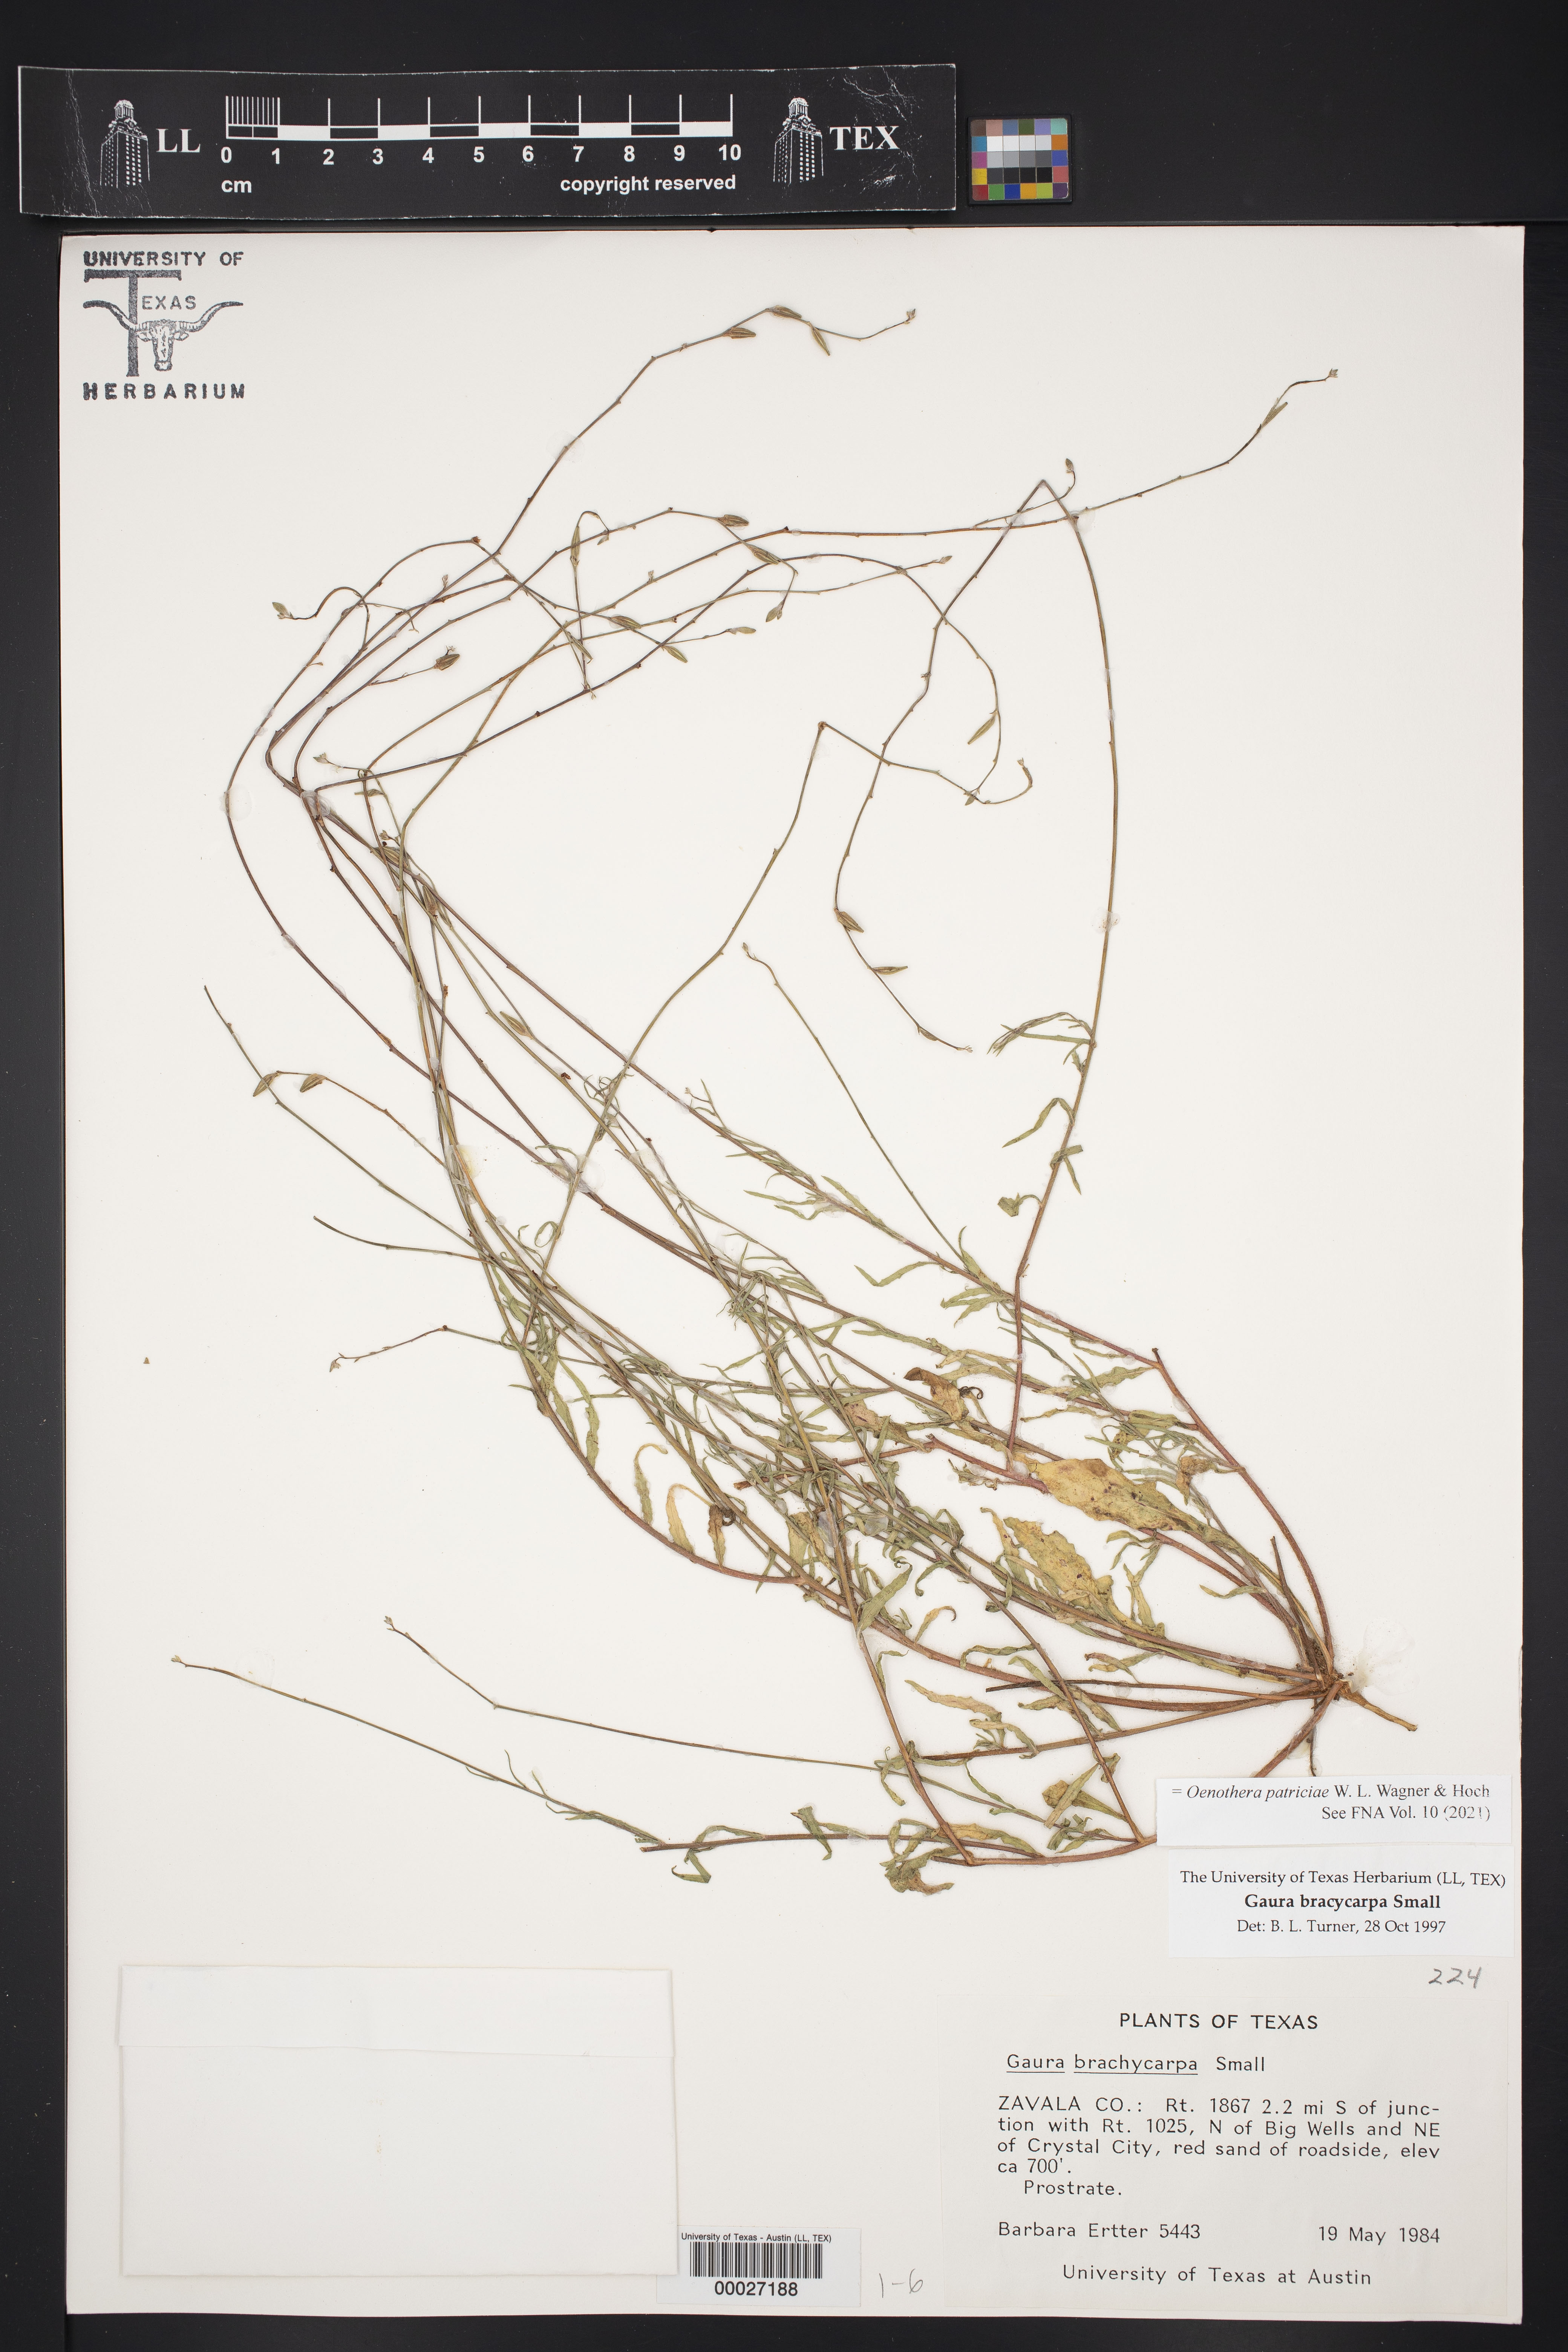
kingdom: Plantae
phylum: Tracheophyta
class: Magnoliopsida
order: Myrtales
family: Onagraceae
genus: Oenothera
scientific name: Oenothera patriciae
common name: Plains beeblossom
